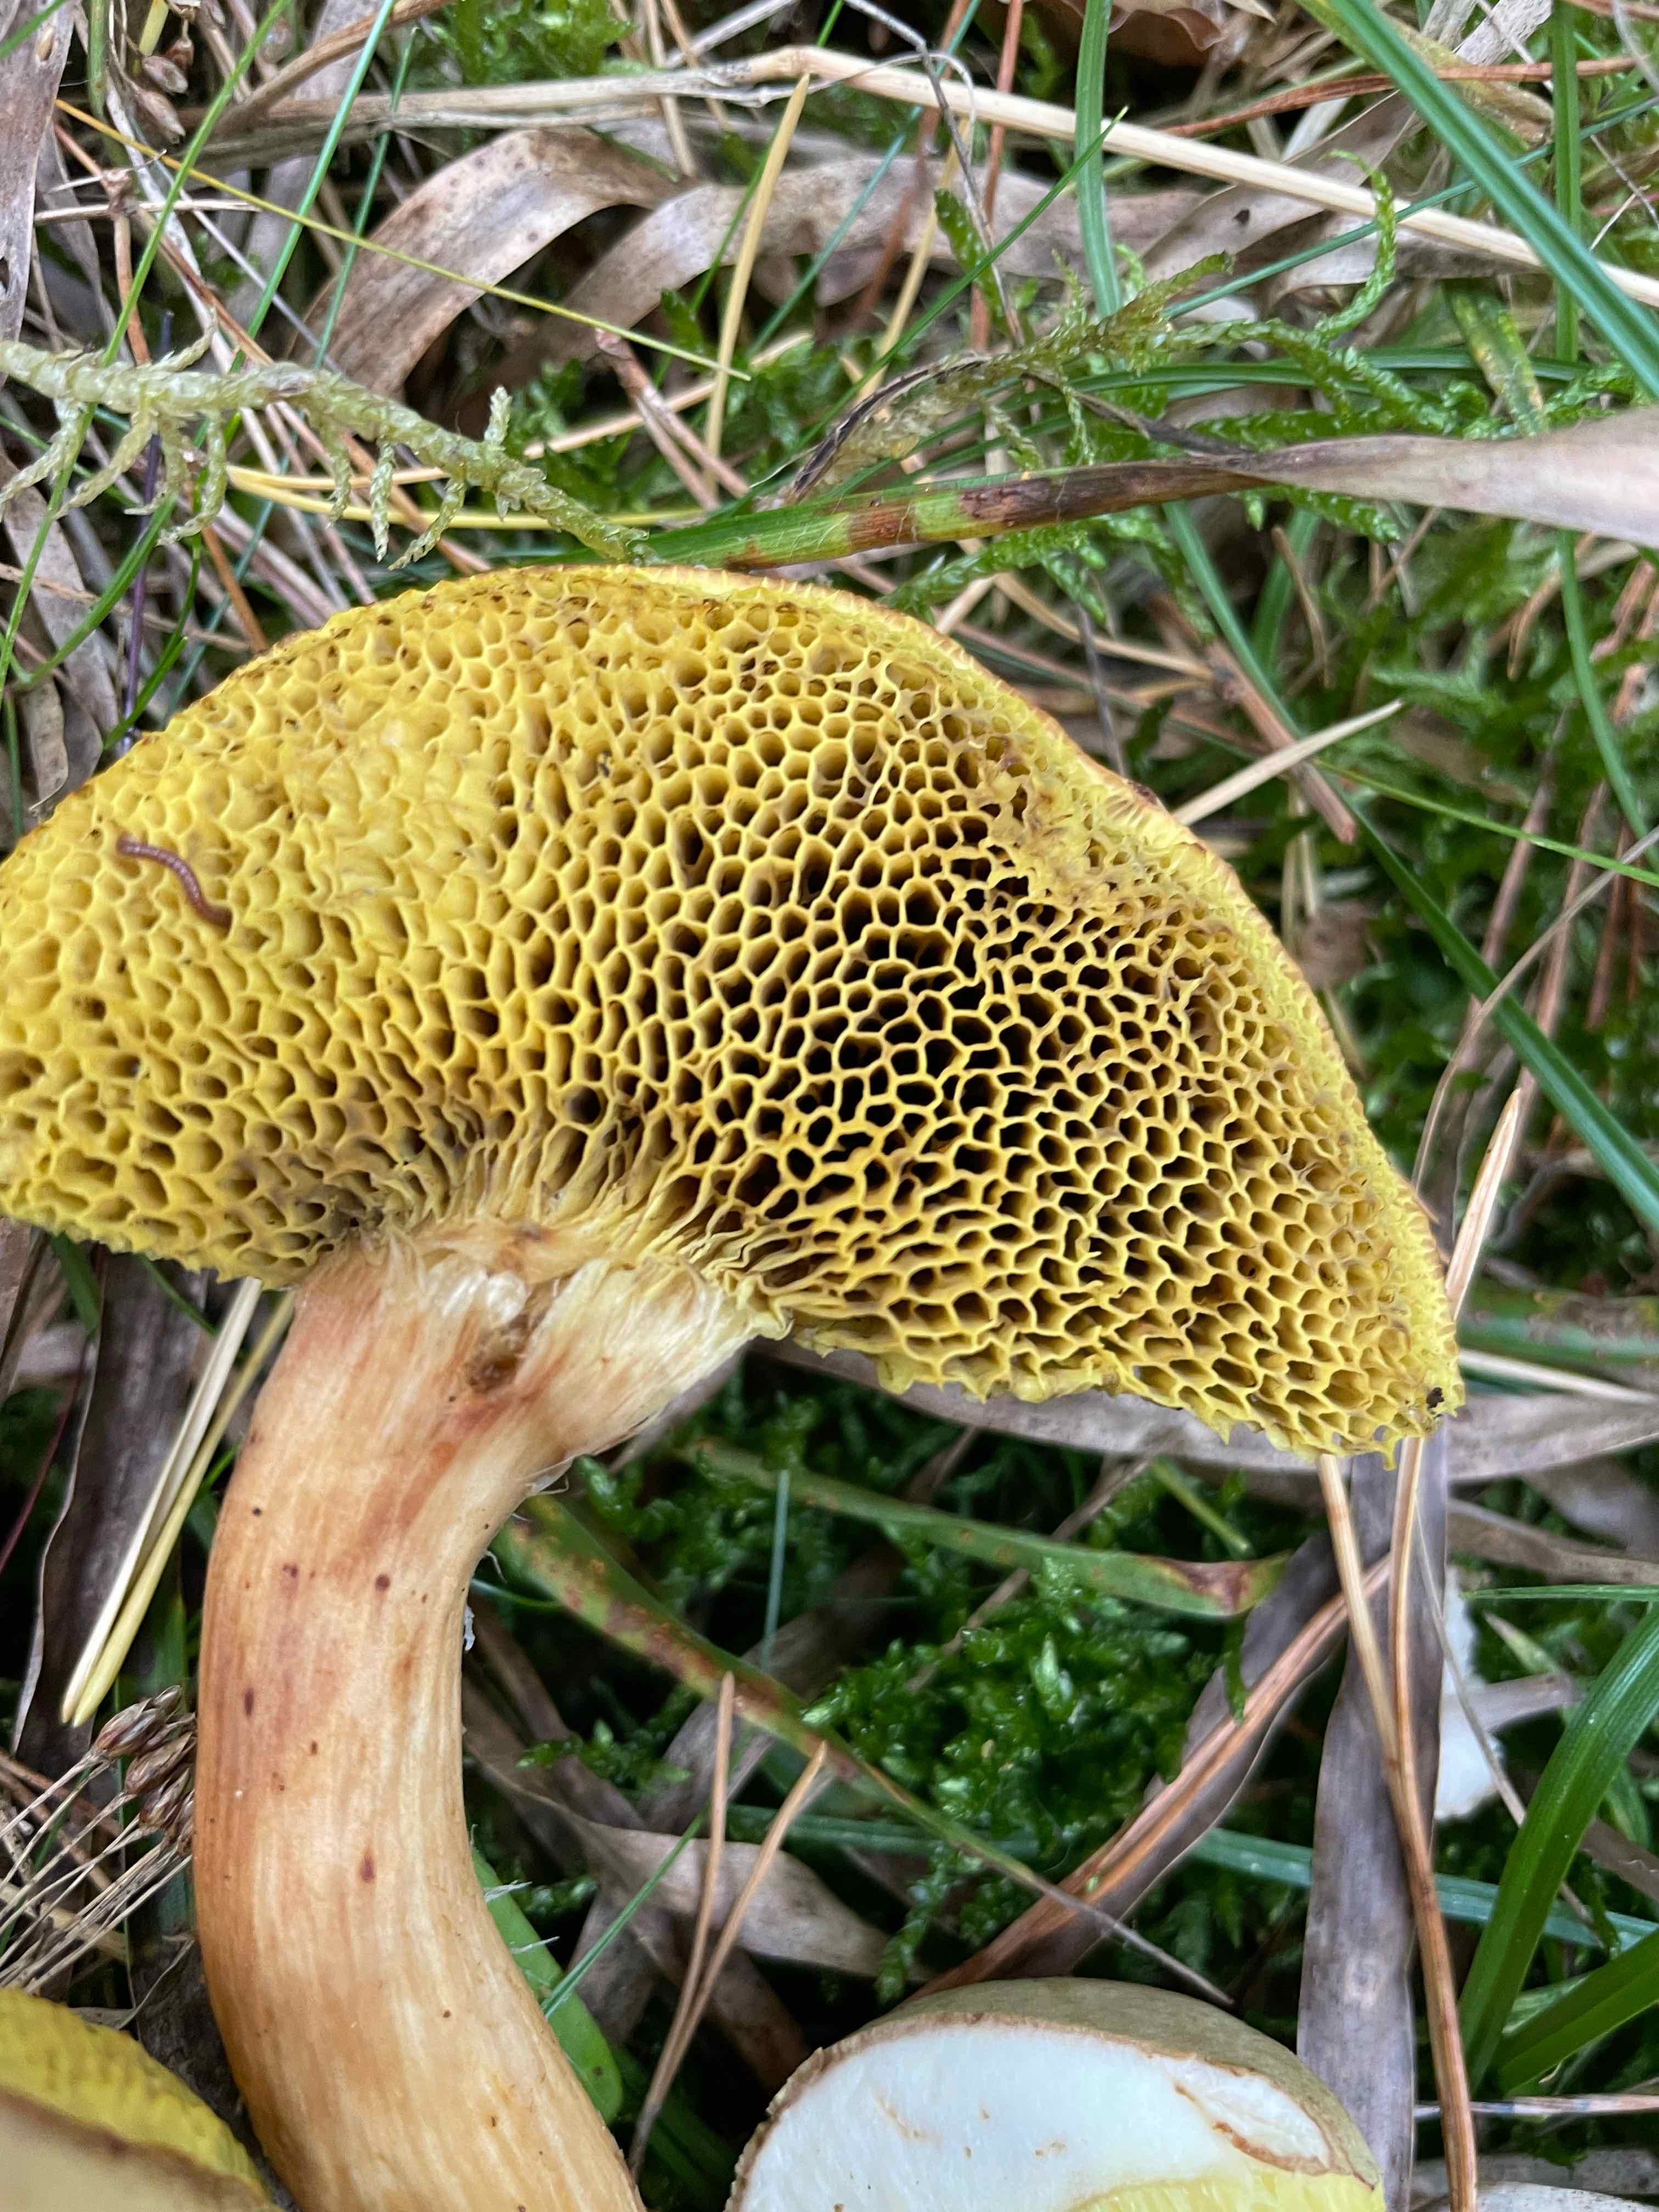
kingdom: Fungi
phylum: Basidiomycota
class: Agaricomycetes
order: Boletales
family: Boletaceae
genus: Xerocomus
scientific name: Xerocomus ferrugineus
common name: vaskeskinds-rørhat
